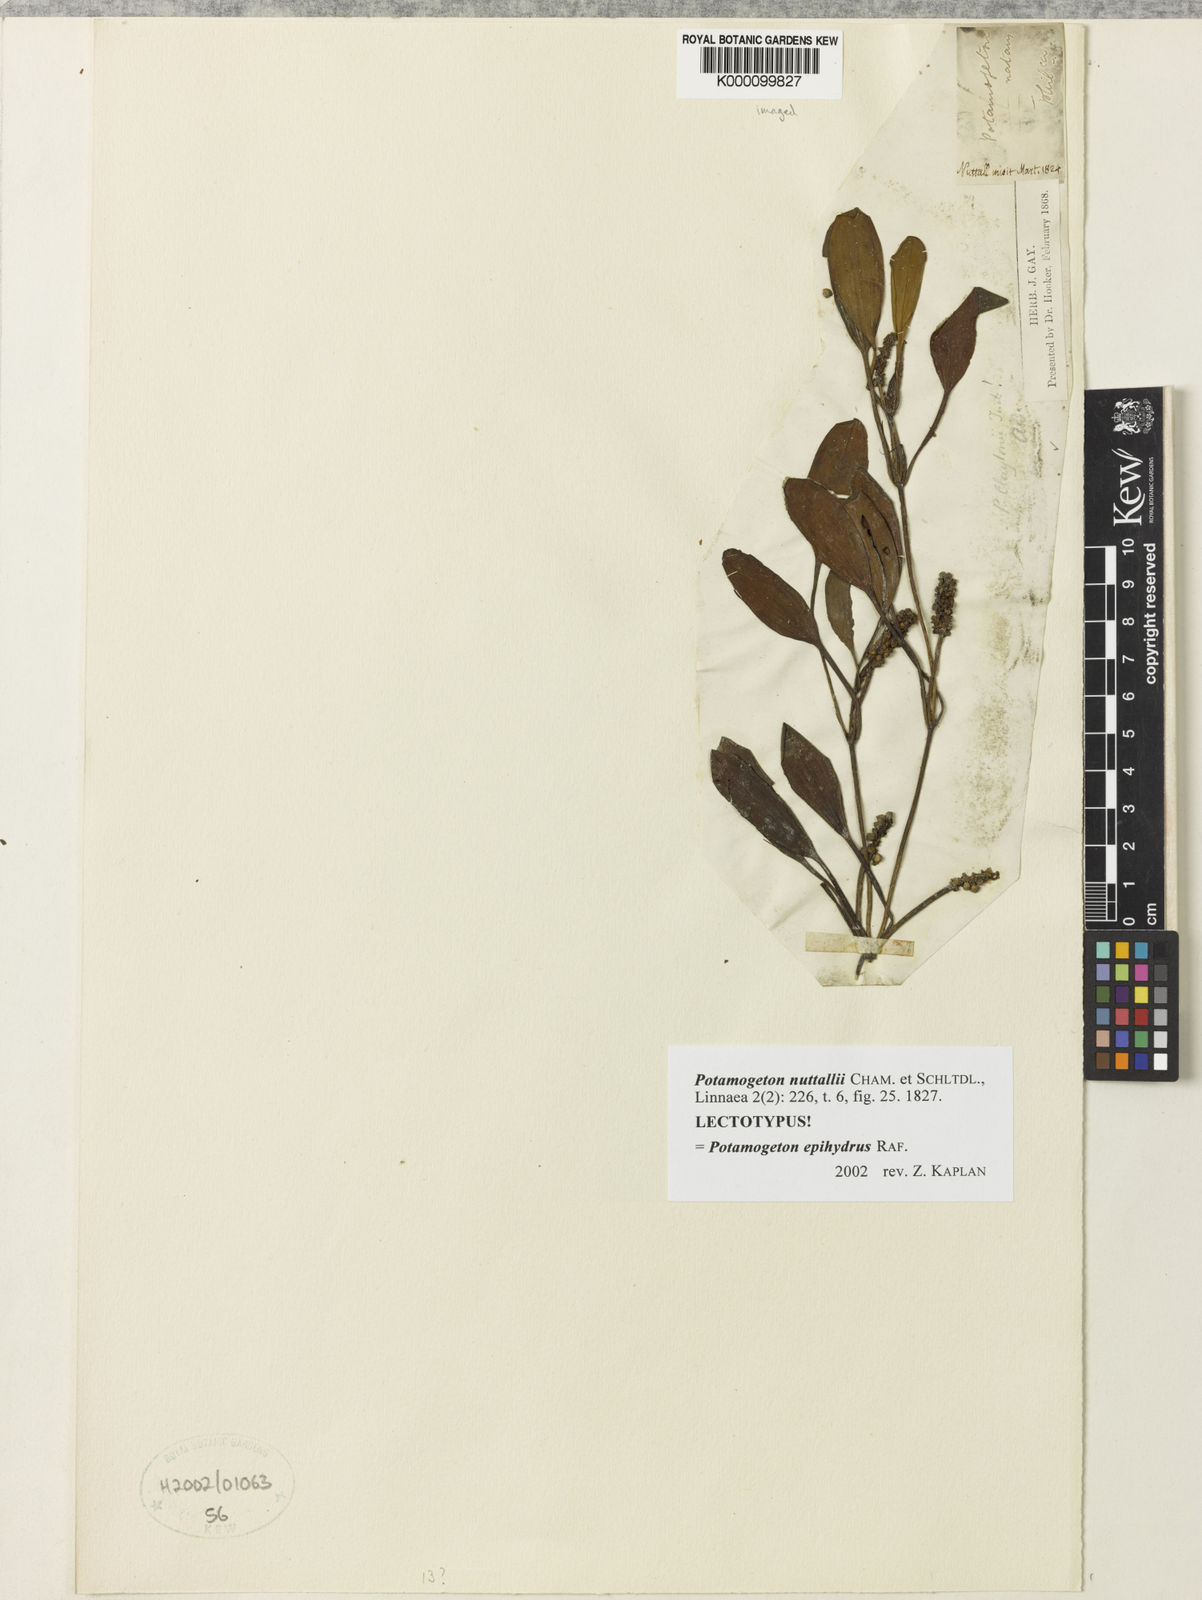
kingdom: Plantae
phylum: Tracheophyta
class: Liliopsida
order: Alismatales
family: Potamogetonaceae
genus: Potamogeton
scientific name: Potamogeton epihydrus
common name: American pondweed
